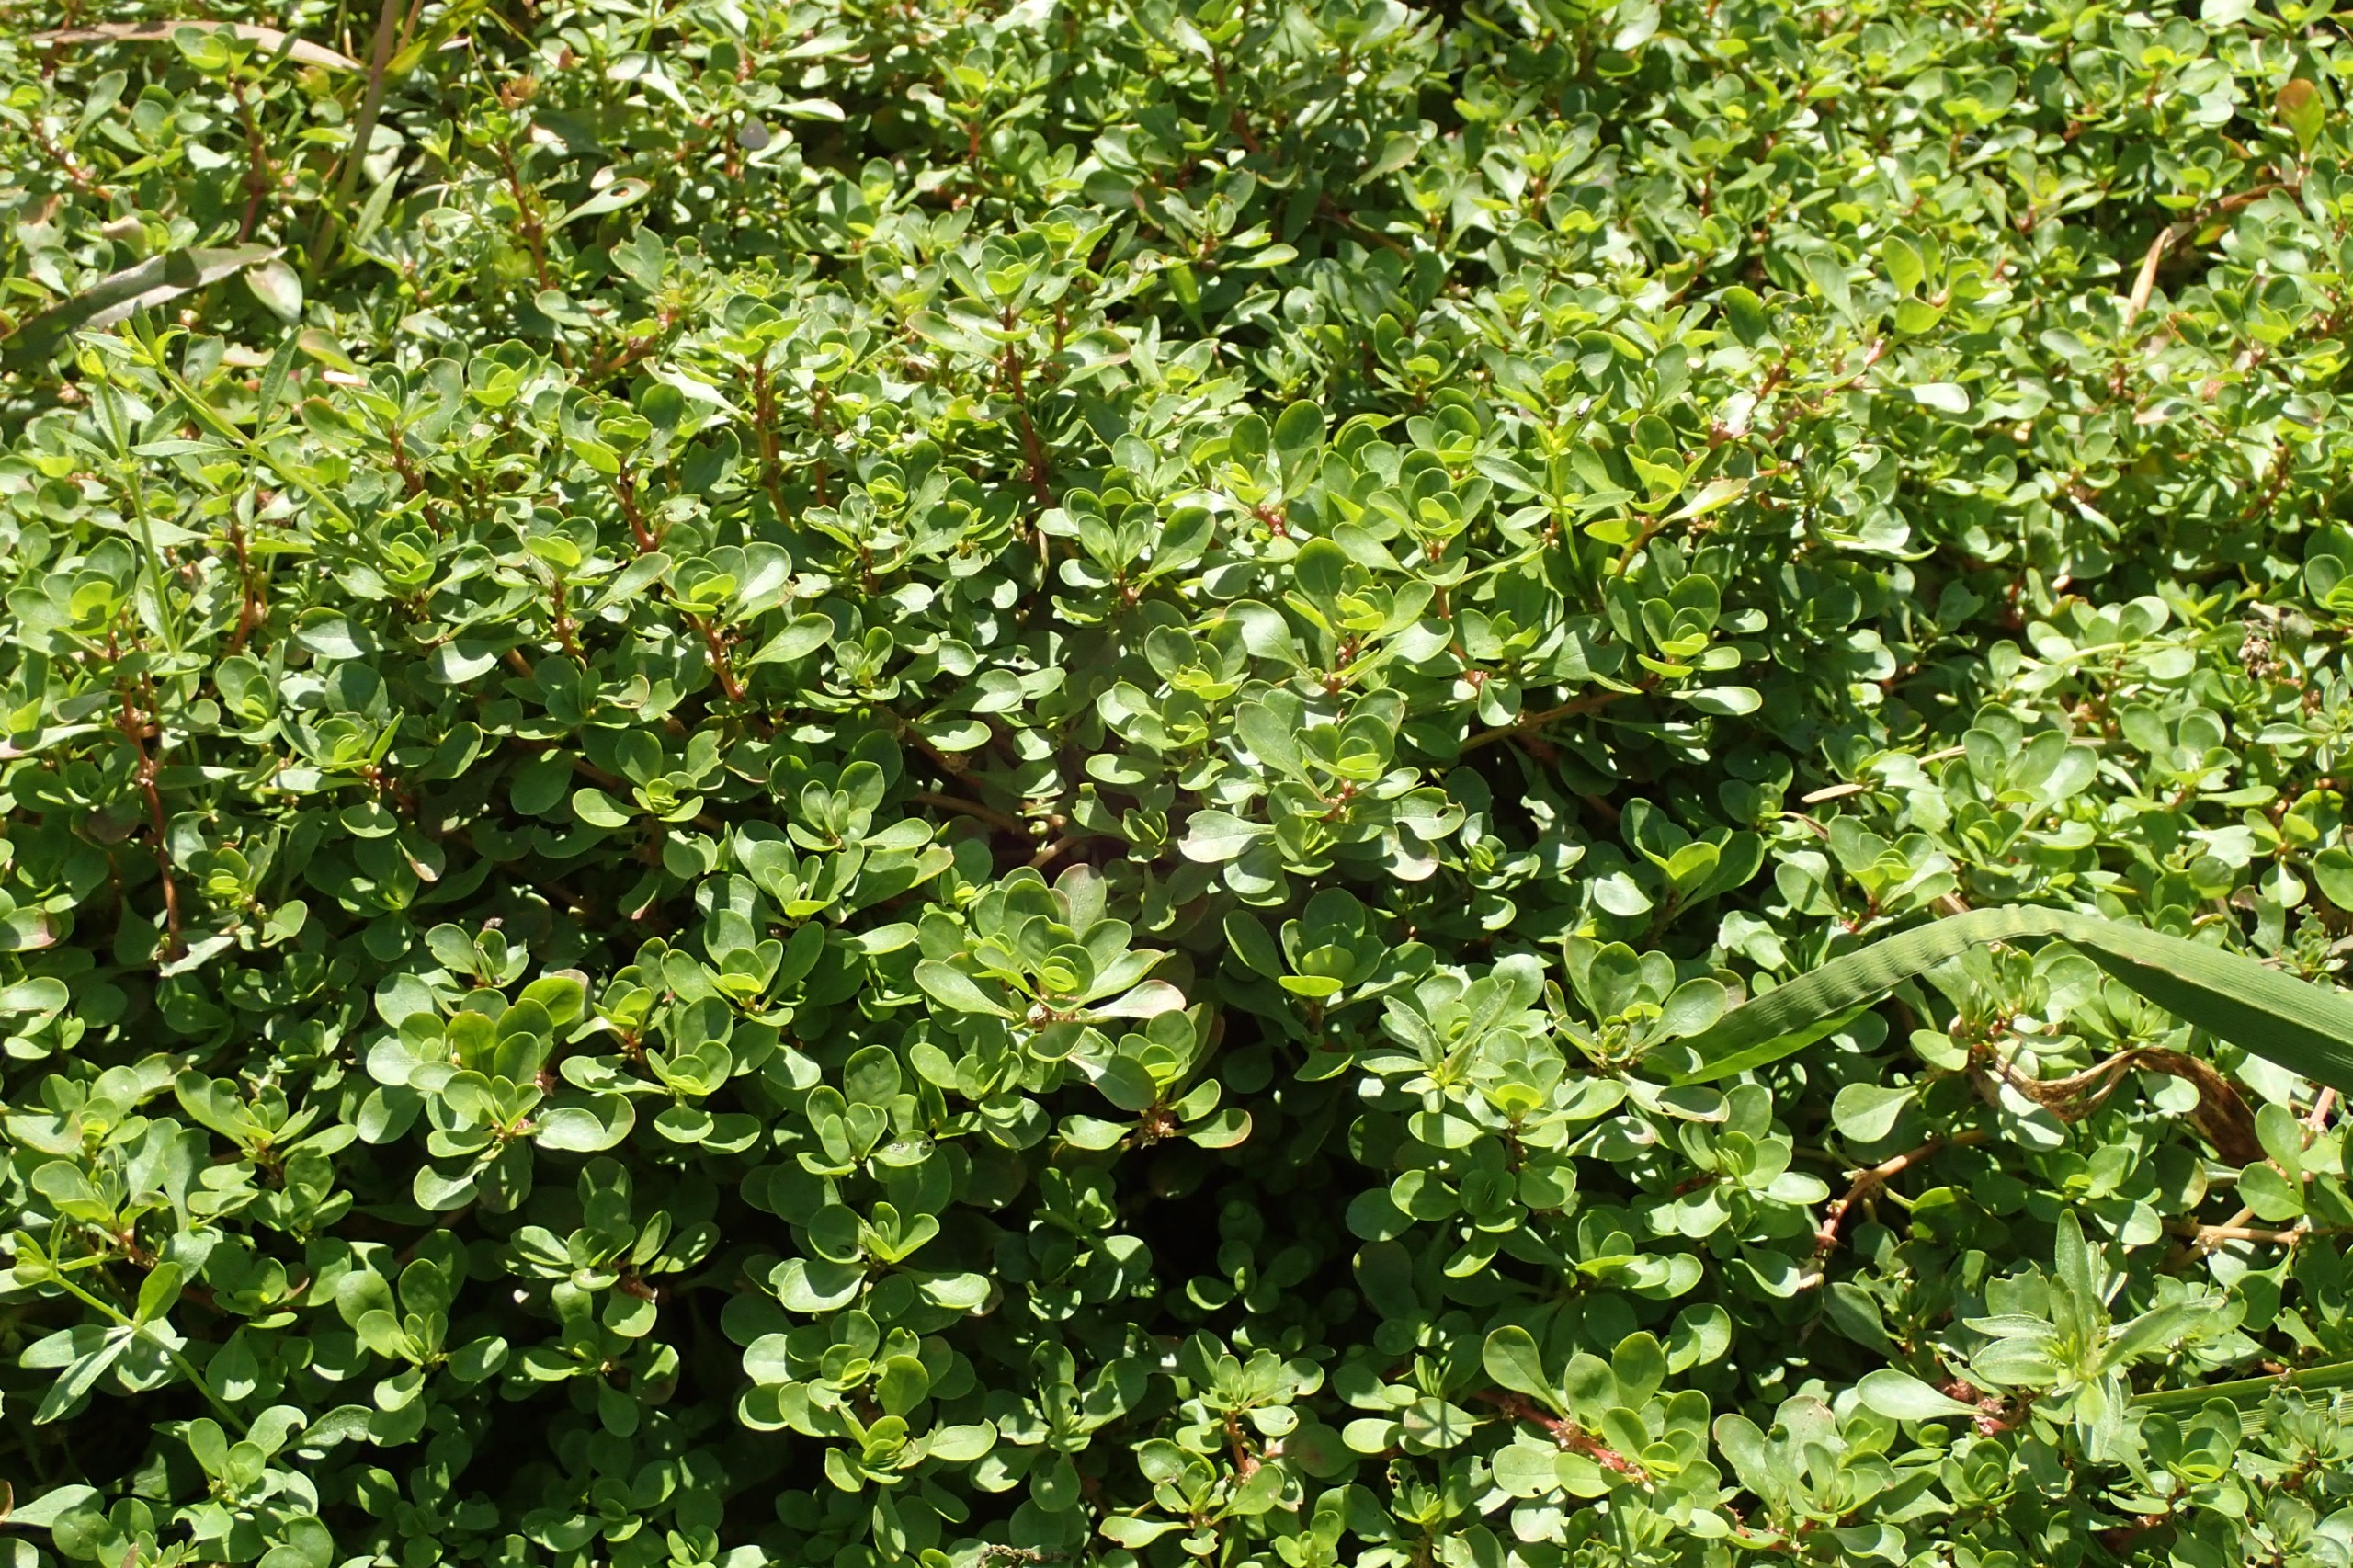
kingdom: Plantae
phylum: Tracheophyta
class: Magnoliopsida
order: Myrtales
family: Lythraceae
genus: Lythrum
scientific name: Lythrum portula
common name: Vandportulak
